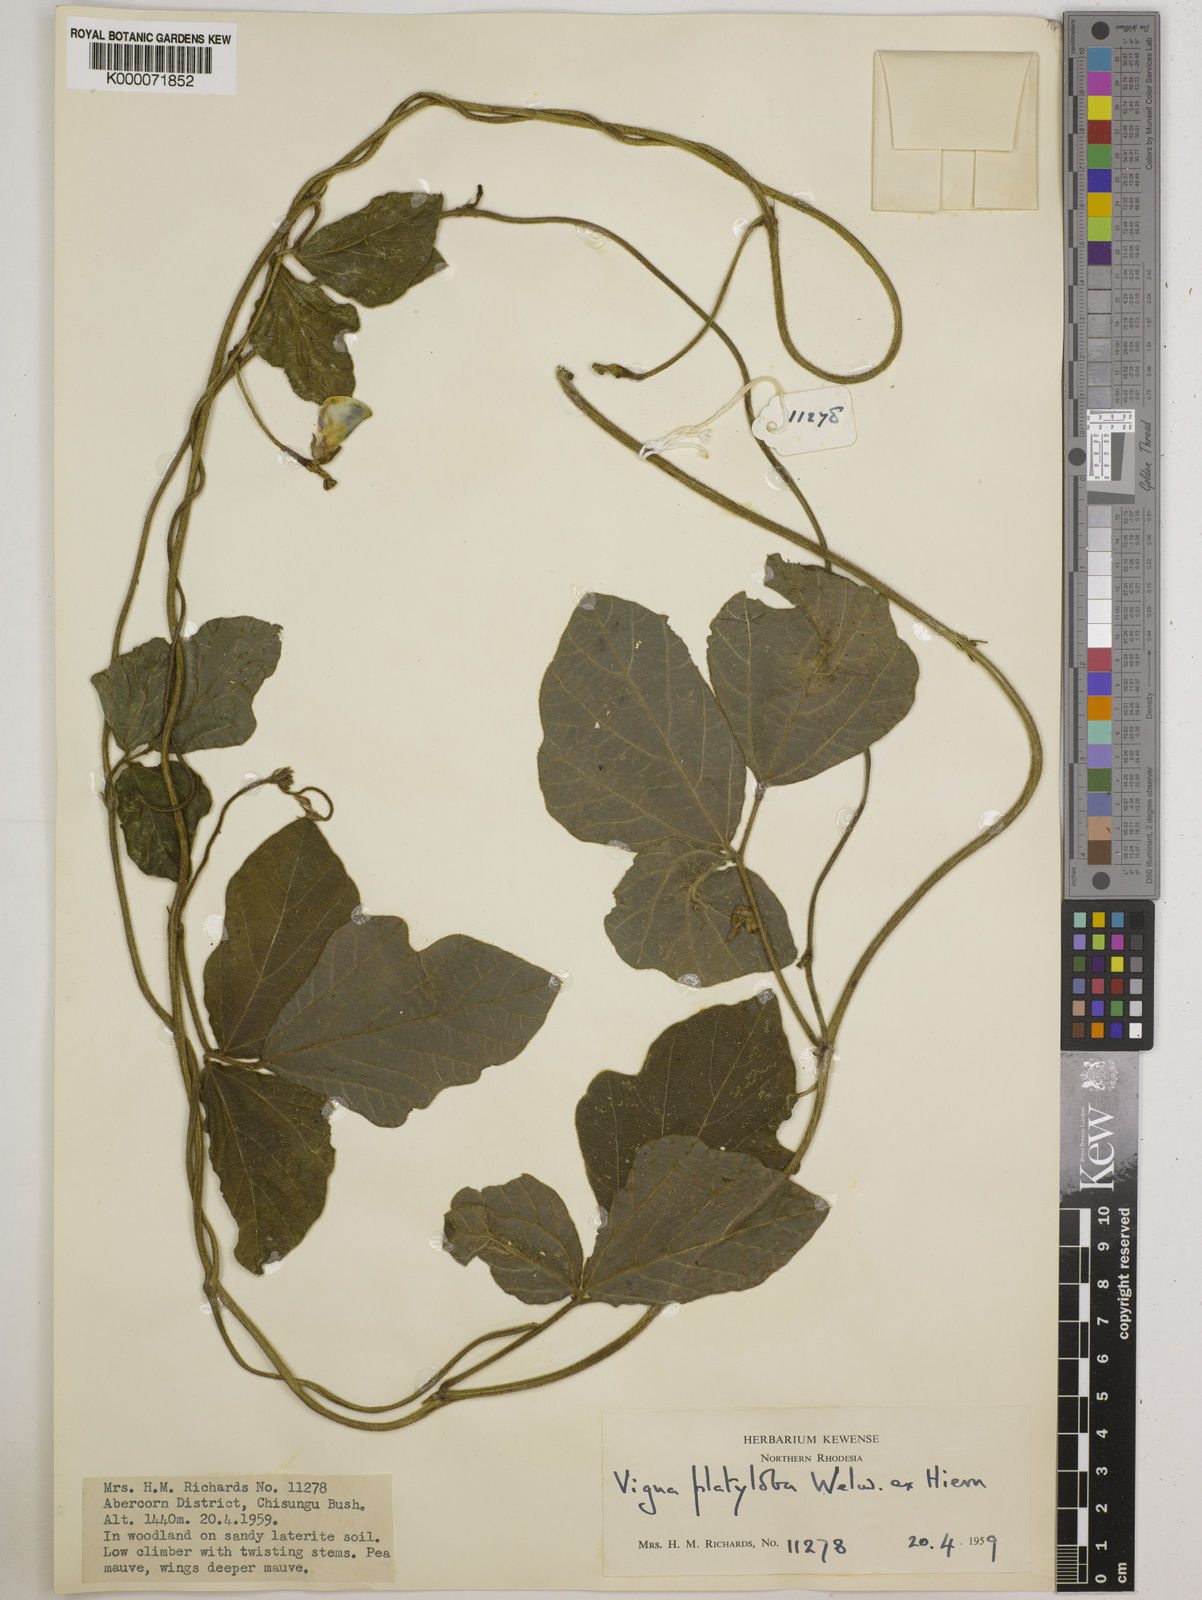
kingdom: Plantae
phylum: Tracheophyta
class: Magnoliopsida
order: Fabales
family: Fabaceae
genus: Vigna
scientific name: Vigna platyloba
